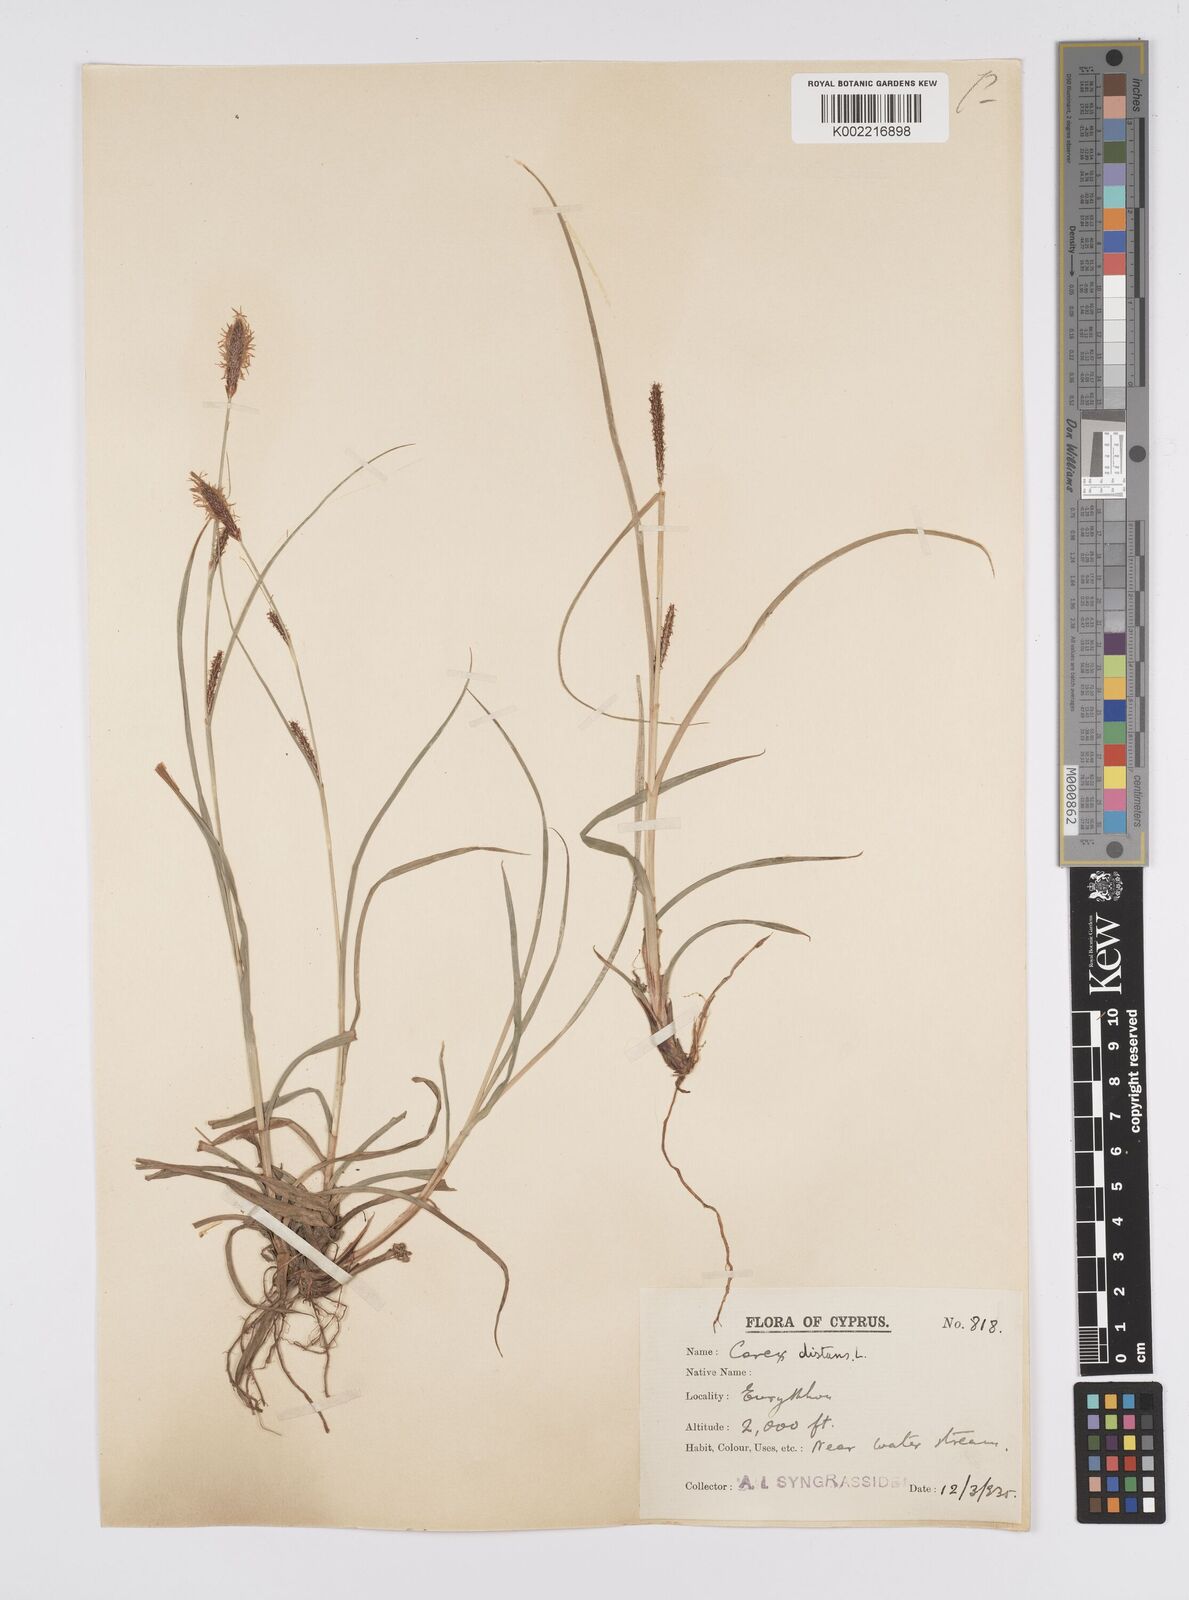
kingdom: Plantae
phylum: Tracheophyta
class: Liliopsida
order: Poales
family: Cyperaceae
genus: Carex
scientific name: Carex distans
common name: Distant sedge
